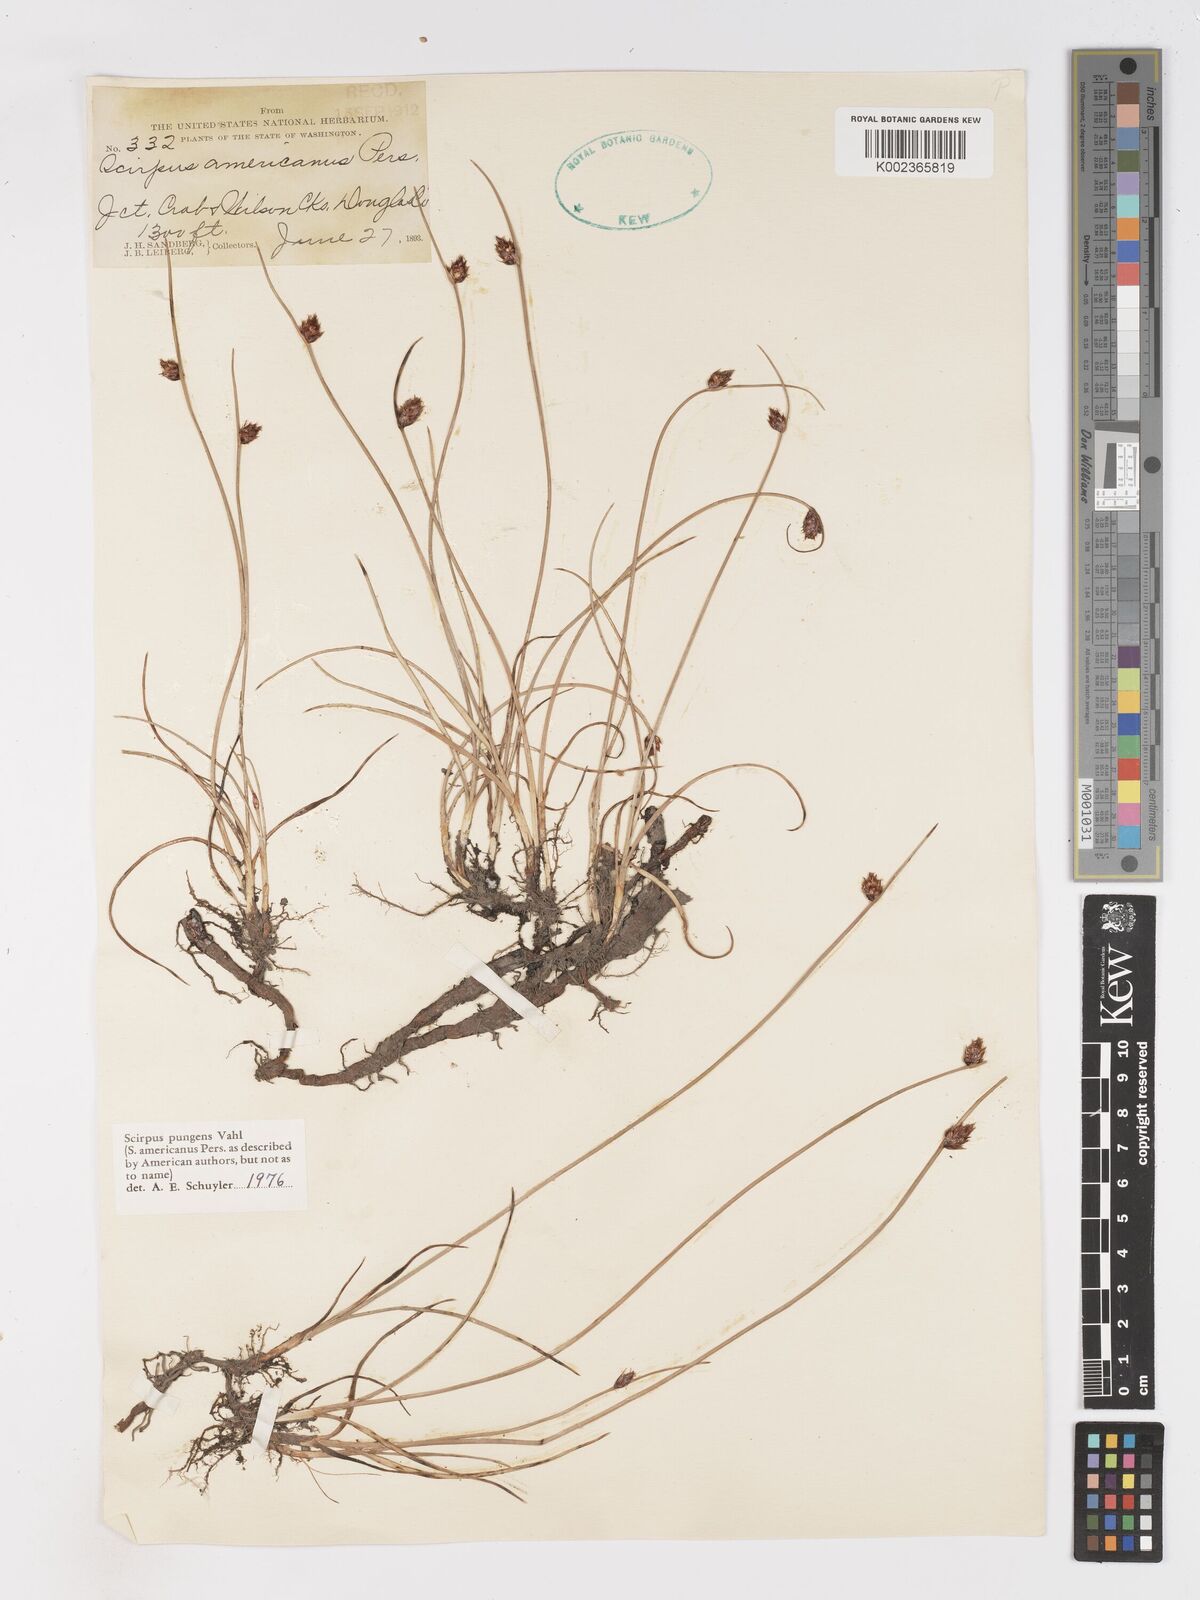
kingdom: Plantae
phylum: Tracheophyta
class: Liliopsida
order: Poales
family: Cyperaceae
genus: Schoenoplectus
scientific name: Schoenoplectus pungens
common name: Sharp club-rush
